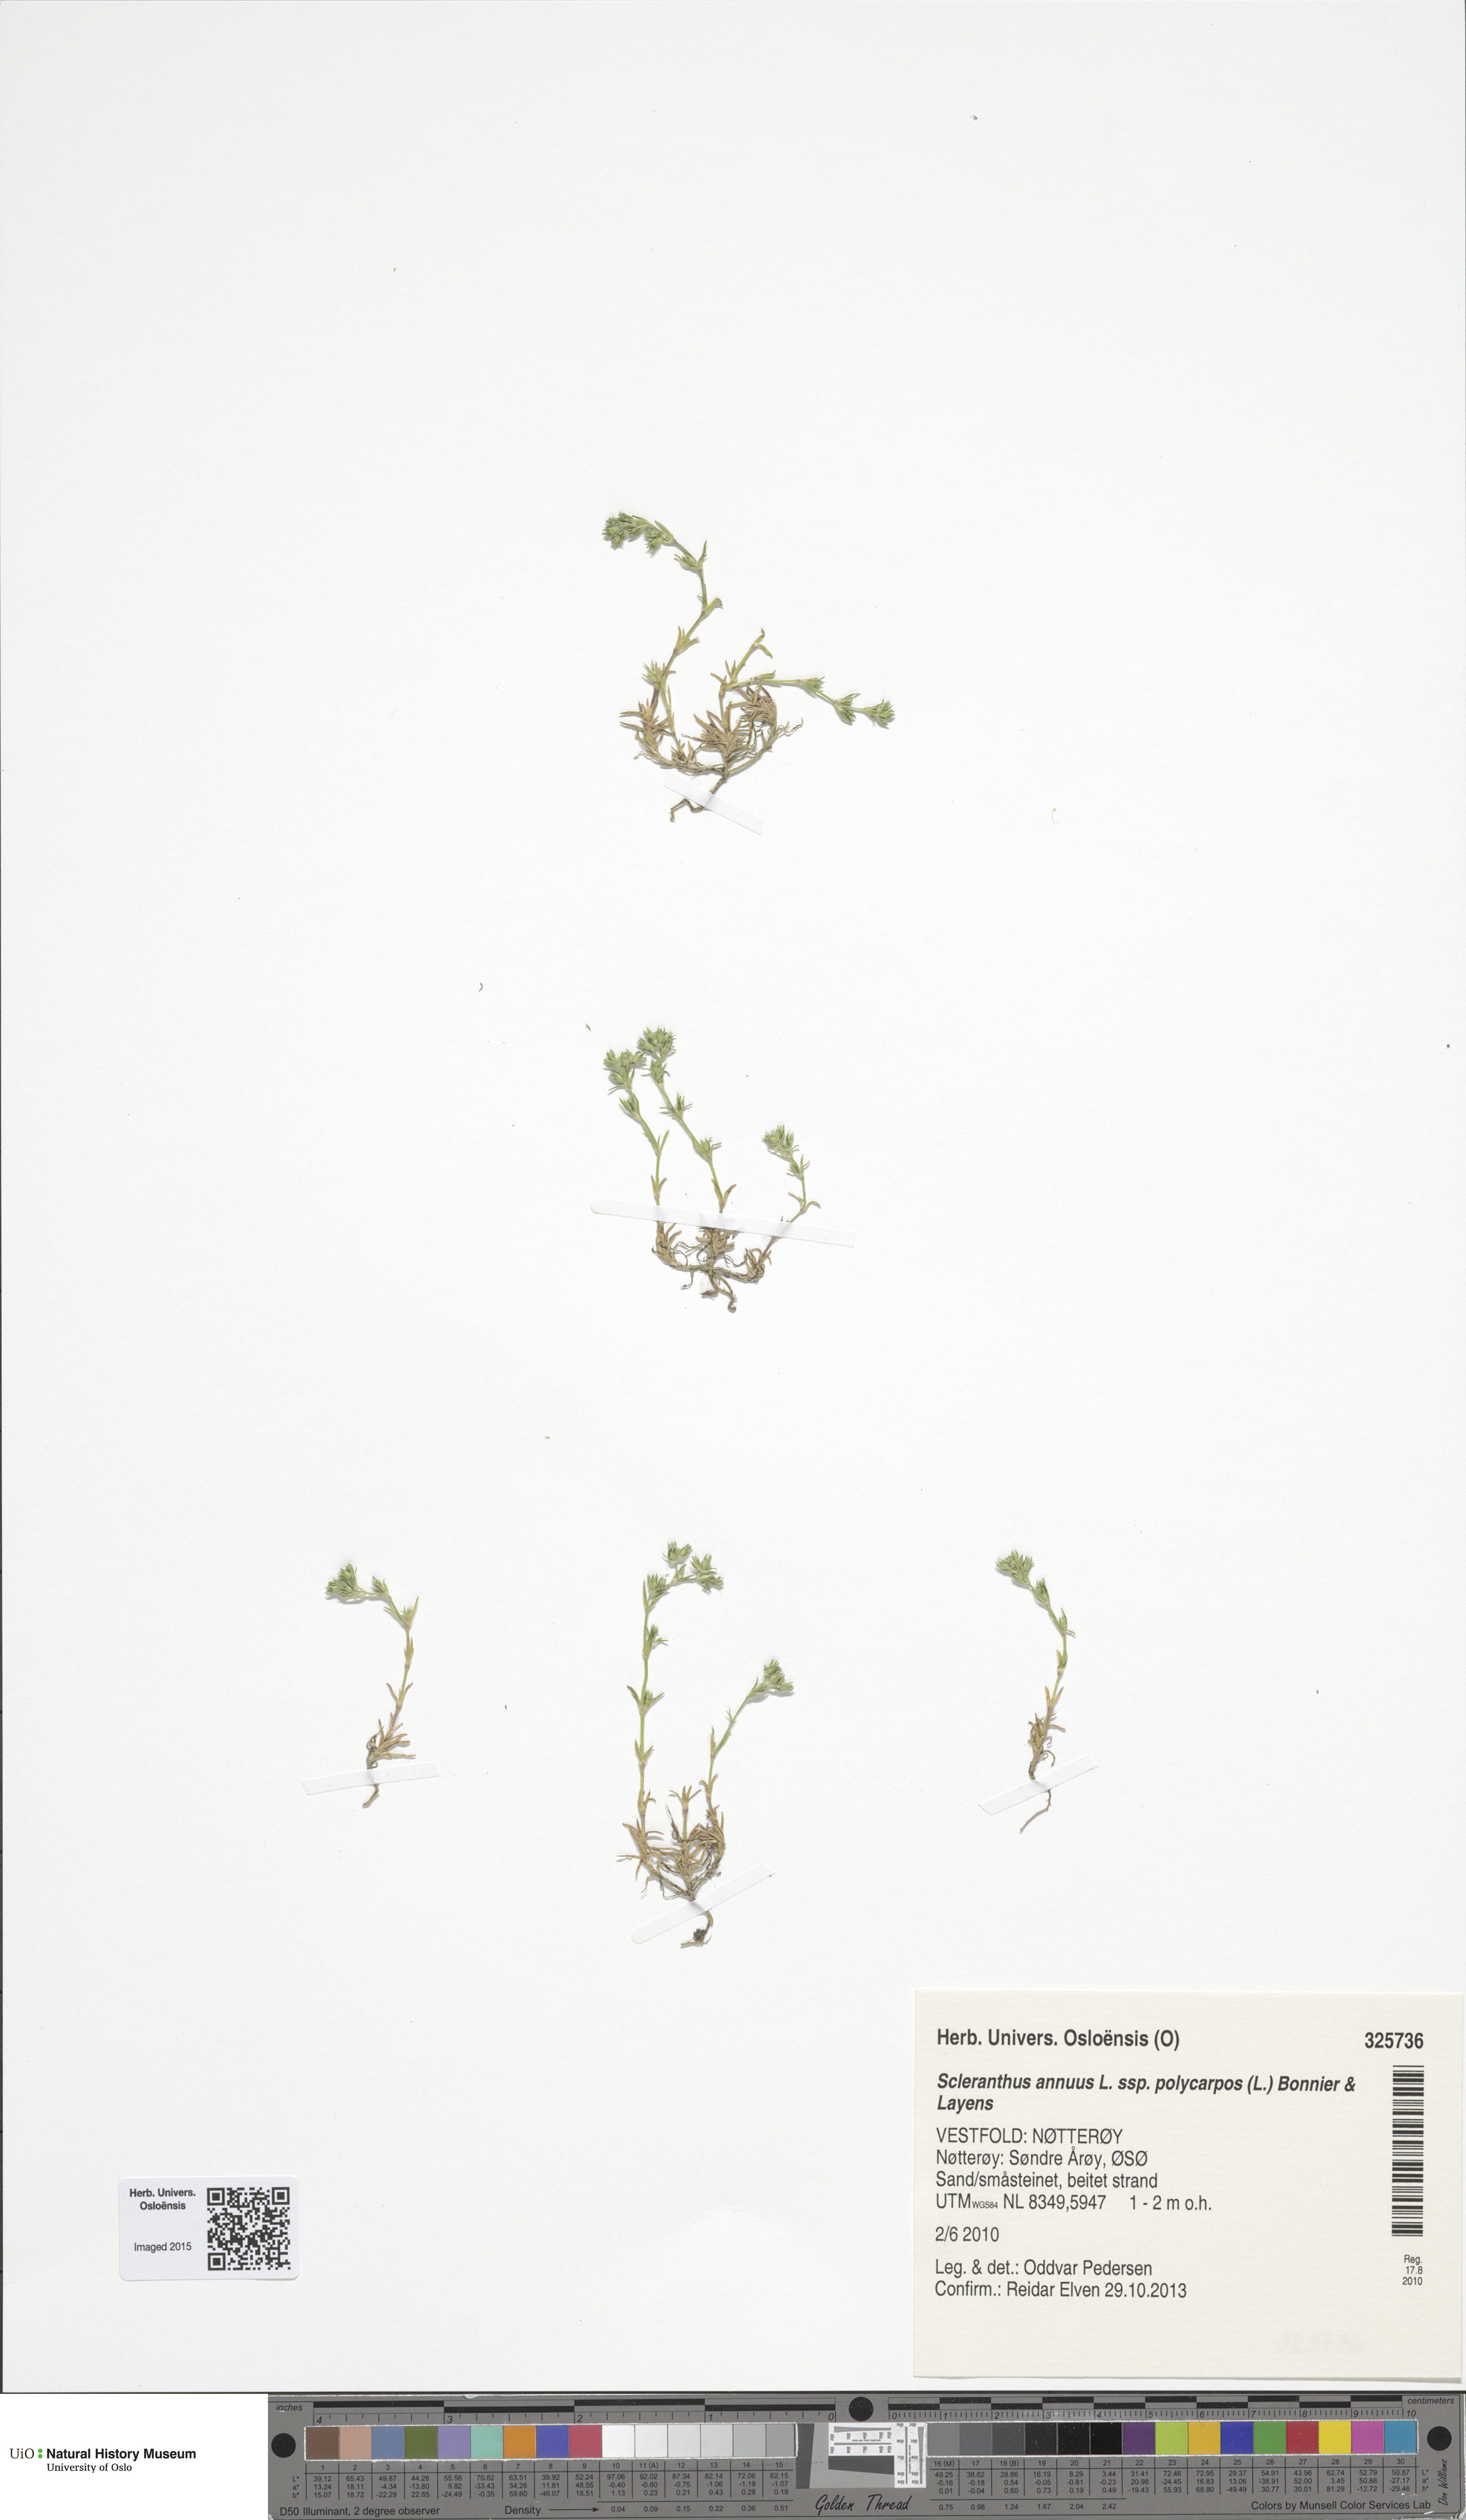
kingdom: Plantae
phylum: Tracheophyta
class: Magnoliopsida
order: Caryophyllales
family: Caryophyllaceae
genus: Scleranthus
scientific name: Scleranthus annuus
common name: Annual knawel
